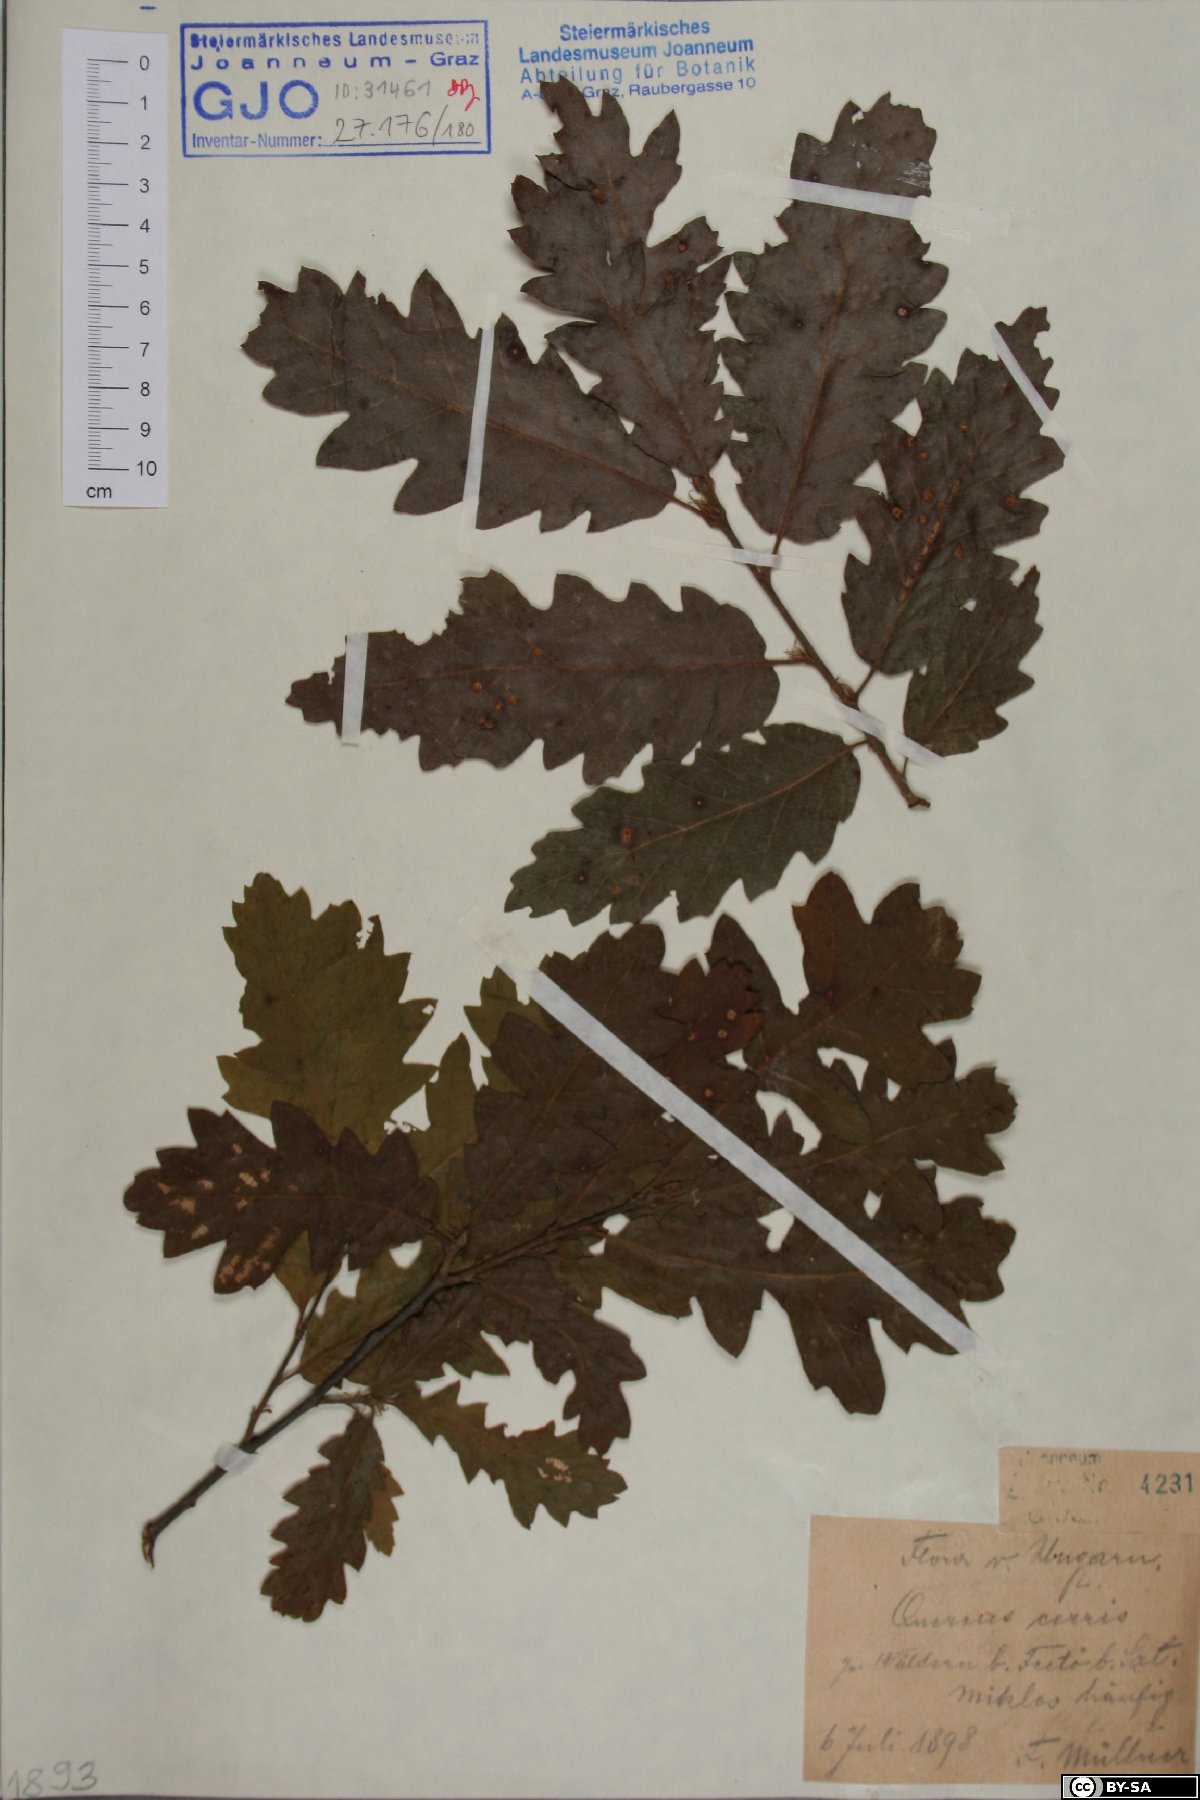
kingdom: Plantae
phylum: Tracheophyta
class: Magnoliopsida
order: Fagales
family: Fagaceae
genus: Quercus
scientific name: Quercus cerris
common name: Turkey oak
